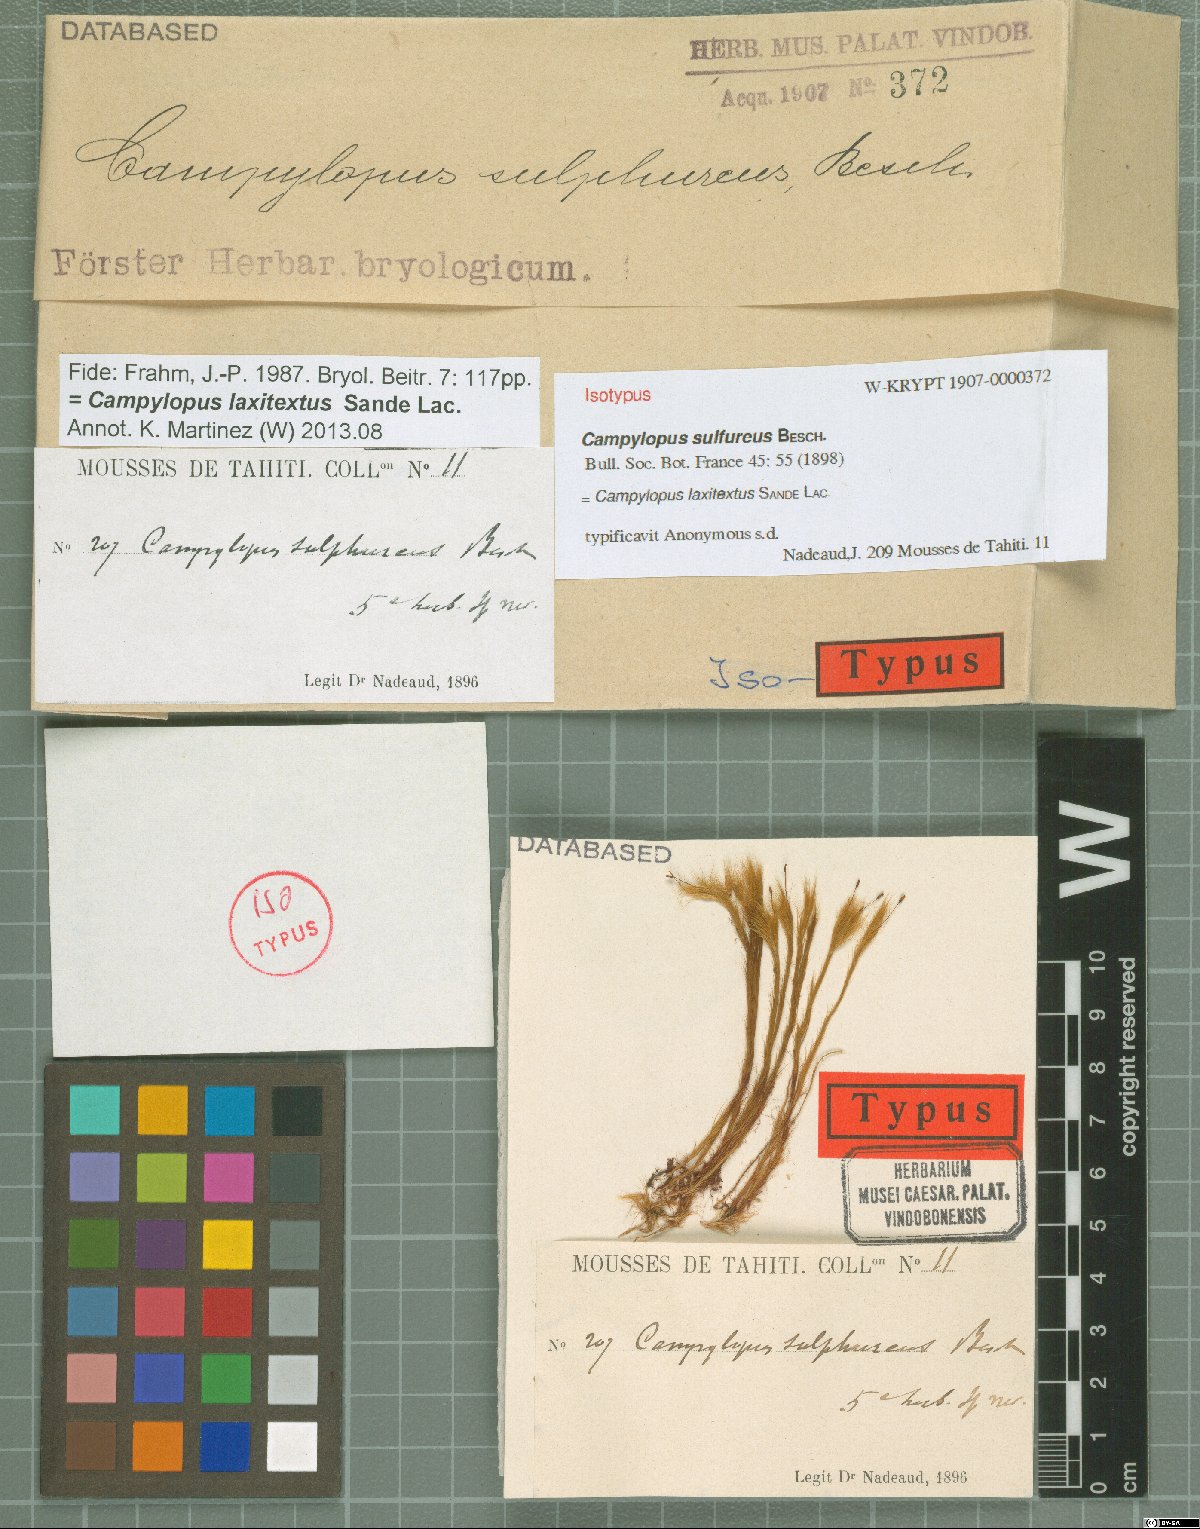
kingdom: Plantae
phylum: Bryophyta
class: Bryopsida
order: Dicranales
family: Leucobryaceae
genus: Campylopus
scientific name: Campylopus laxitextus
